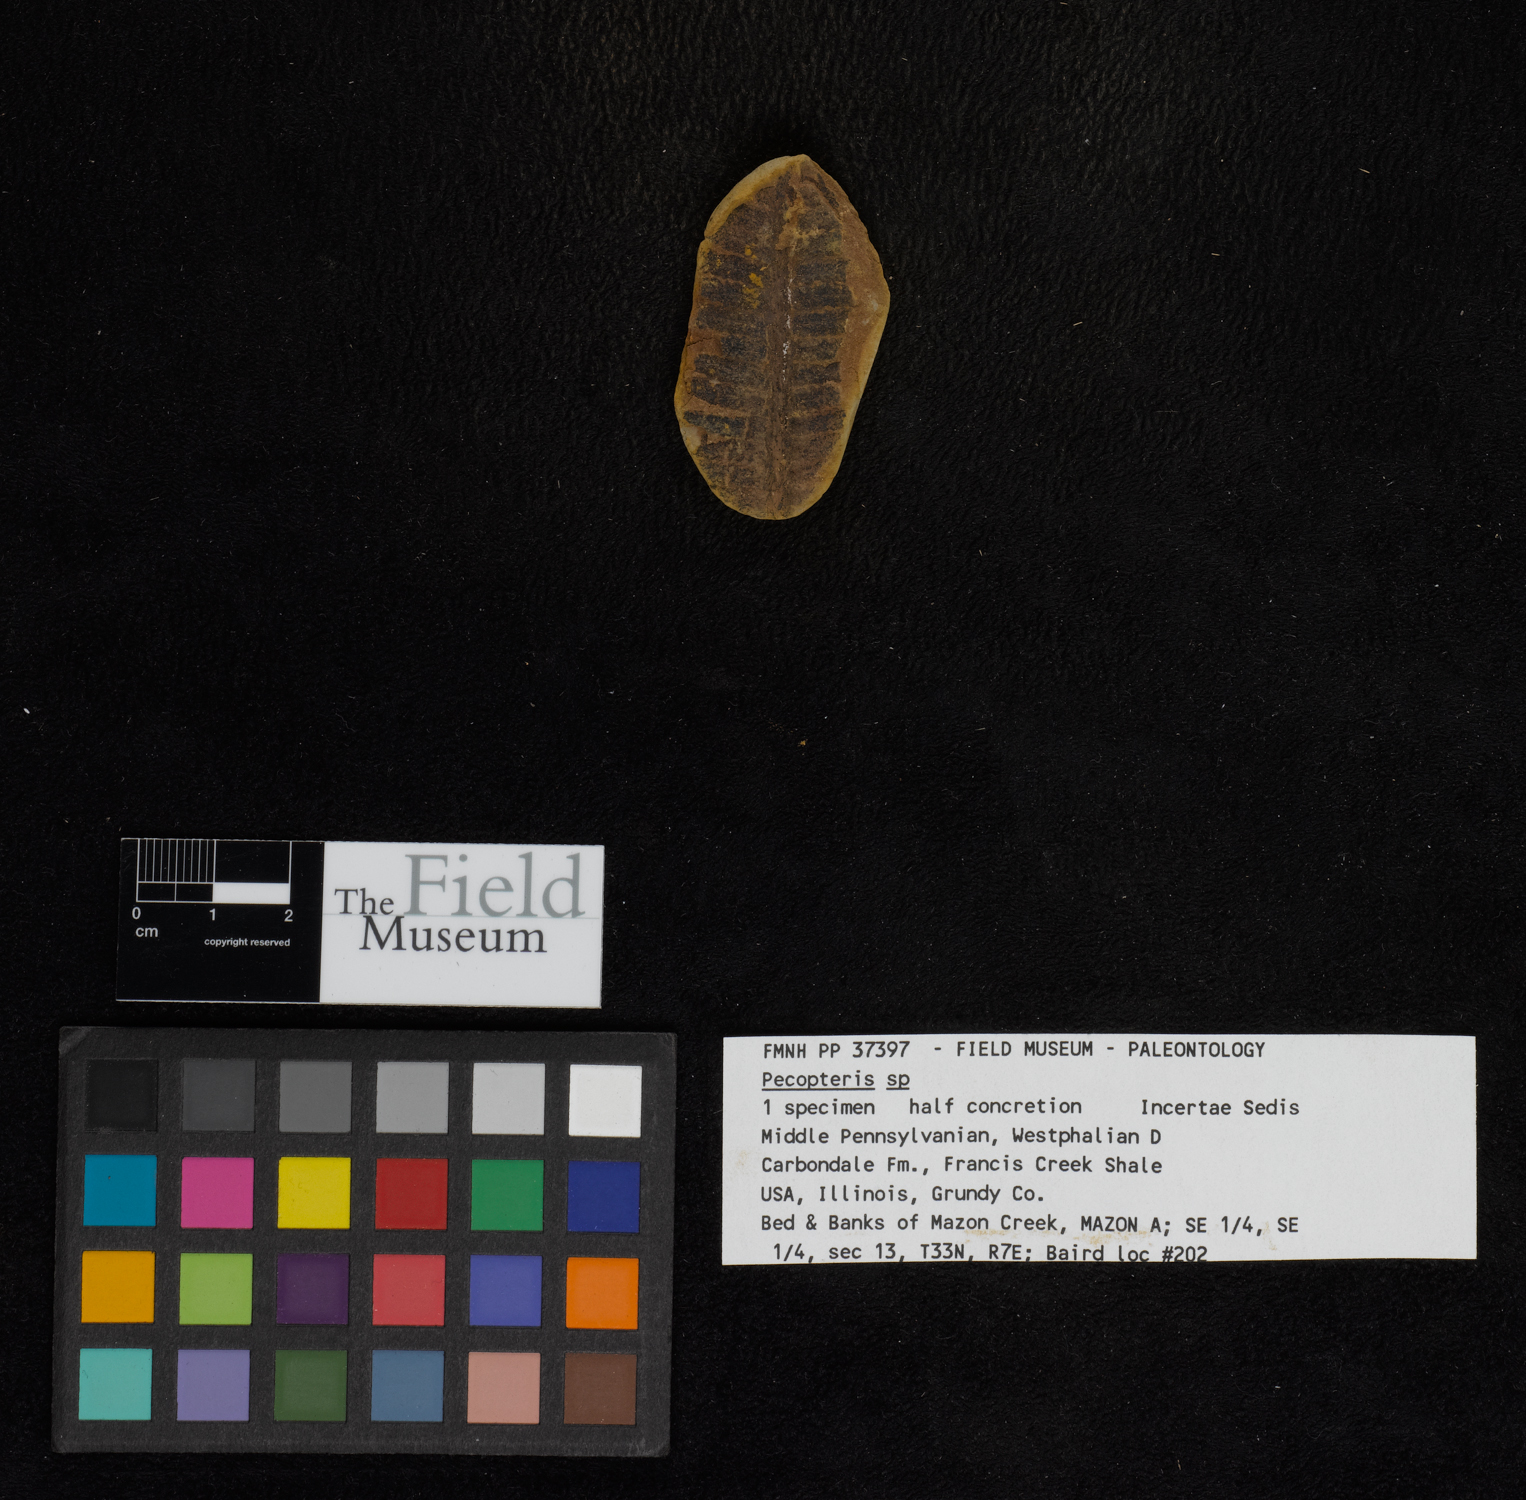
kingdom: Plantae
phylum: Tracheophyta
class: Polypodiopsida
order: Marattiales
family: Asterothecaceae
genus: Pecopteris
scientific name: Pecopteris
